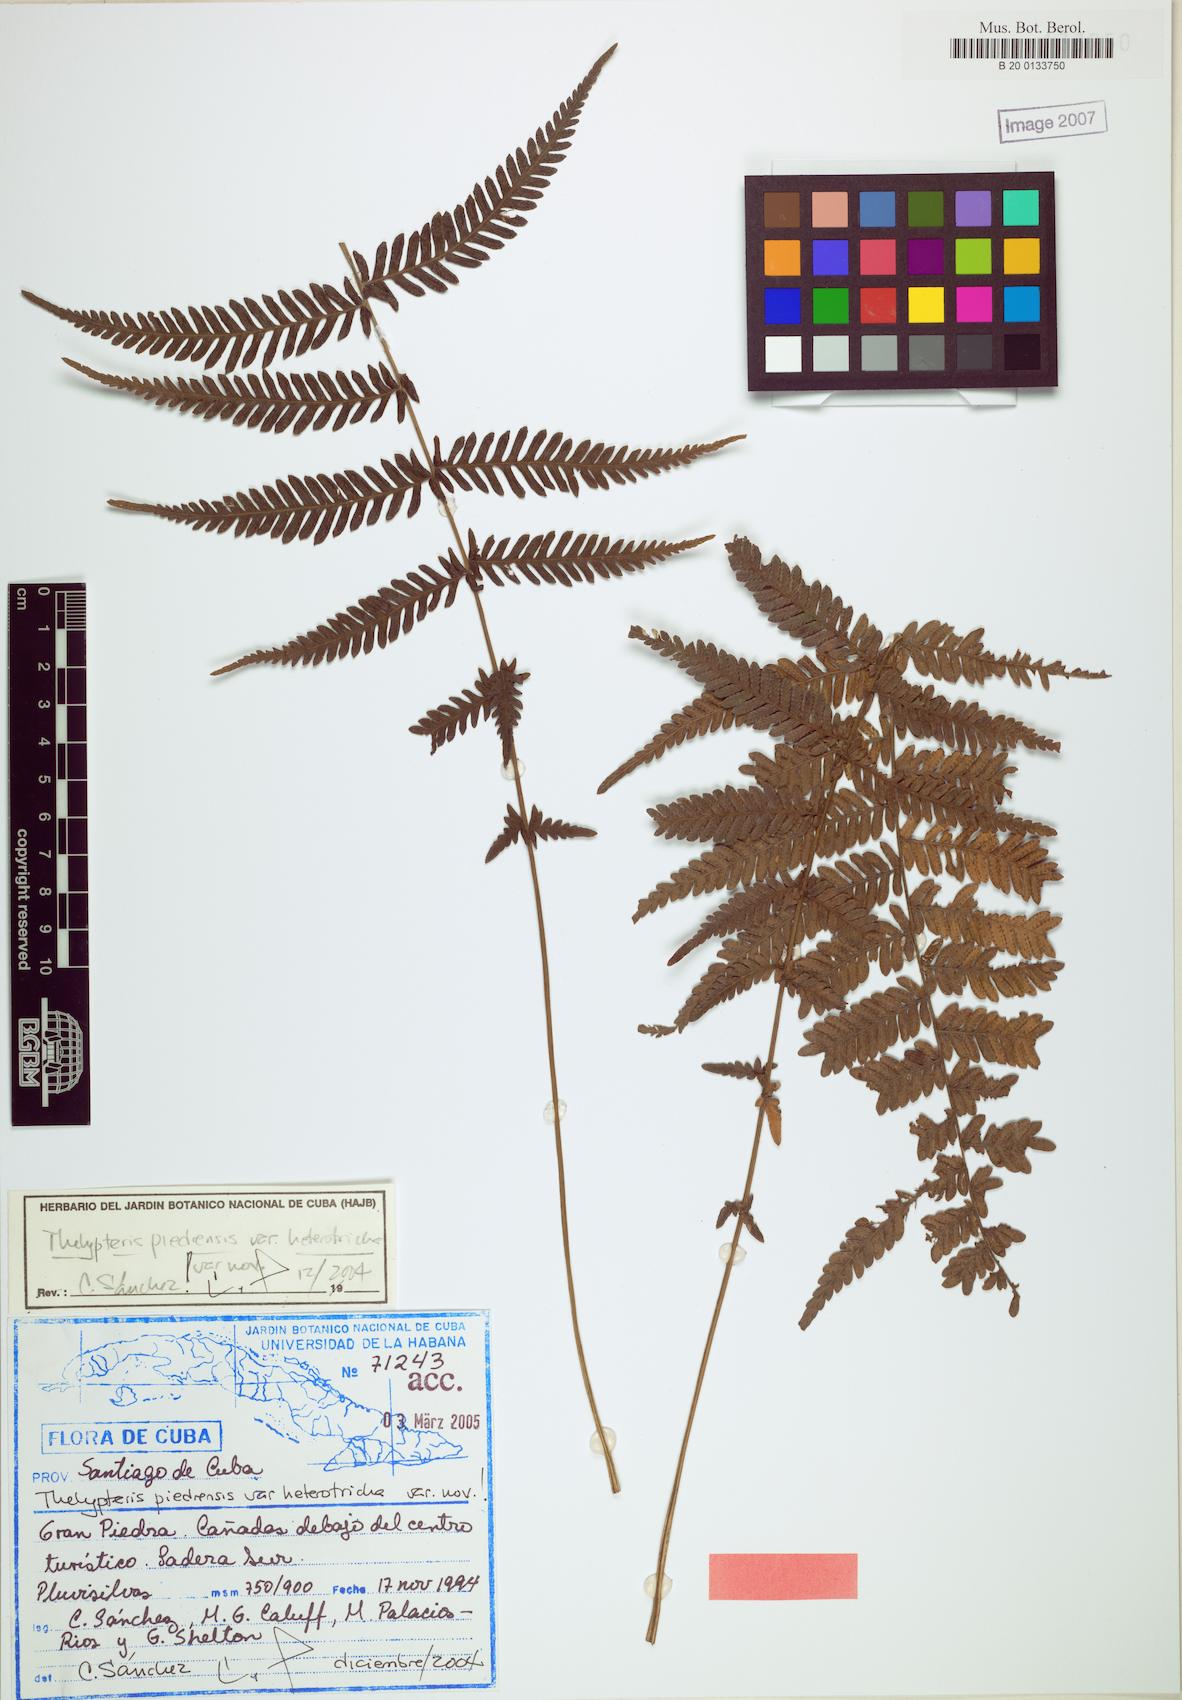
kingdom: Plantae
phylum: Tracheophyta
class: Polypodiopsida
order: Polypodiales
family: Thelypteridaceae
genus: Amauropelta
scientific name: Amauropelta piedrensis
